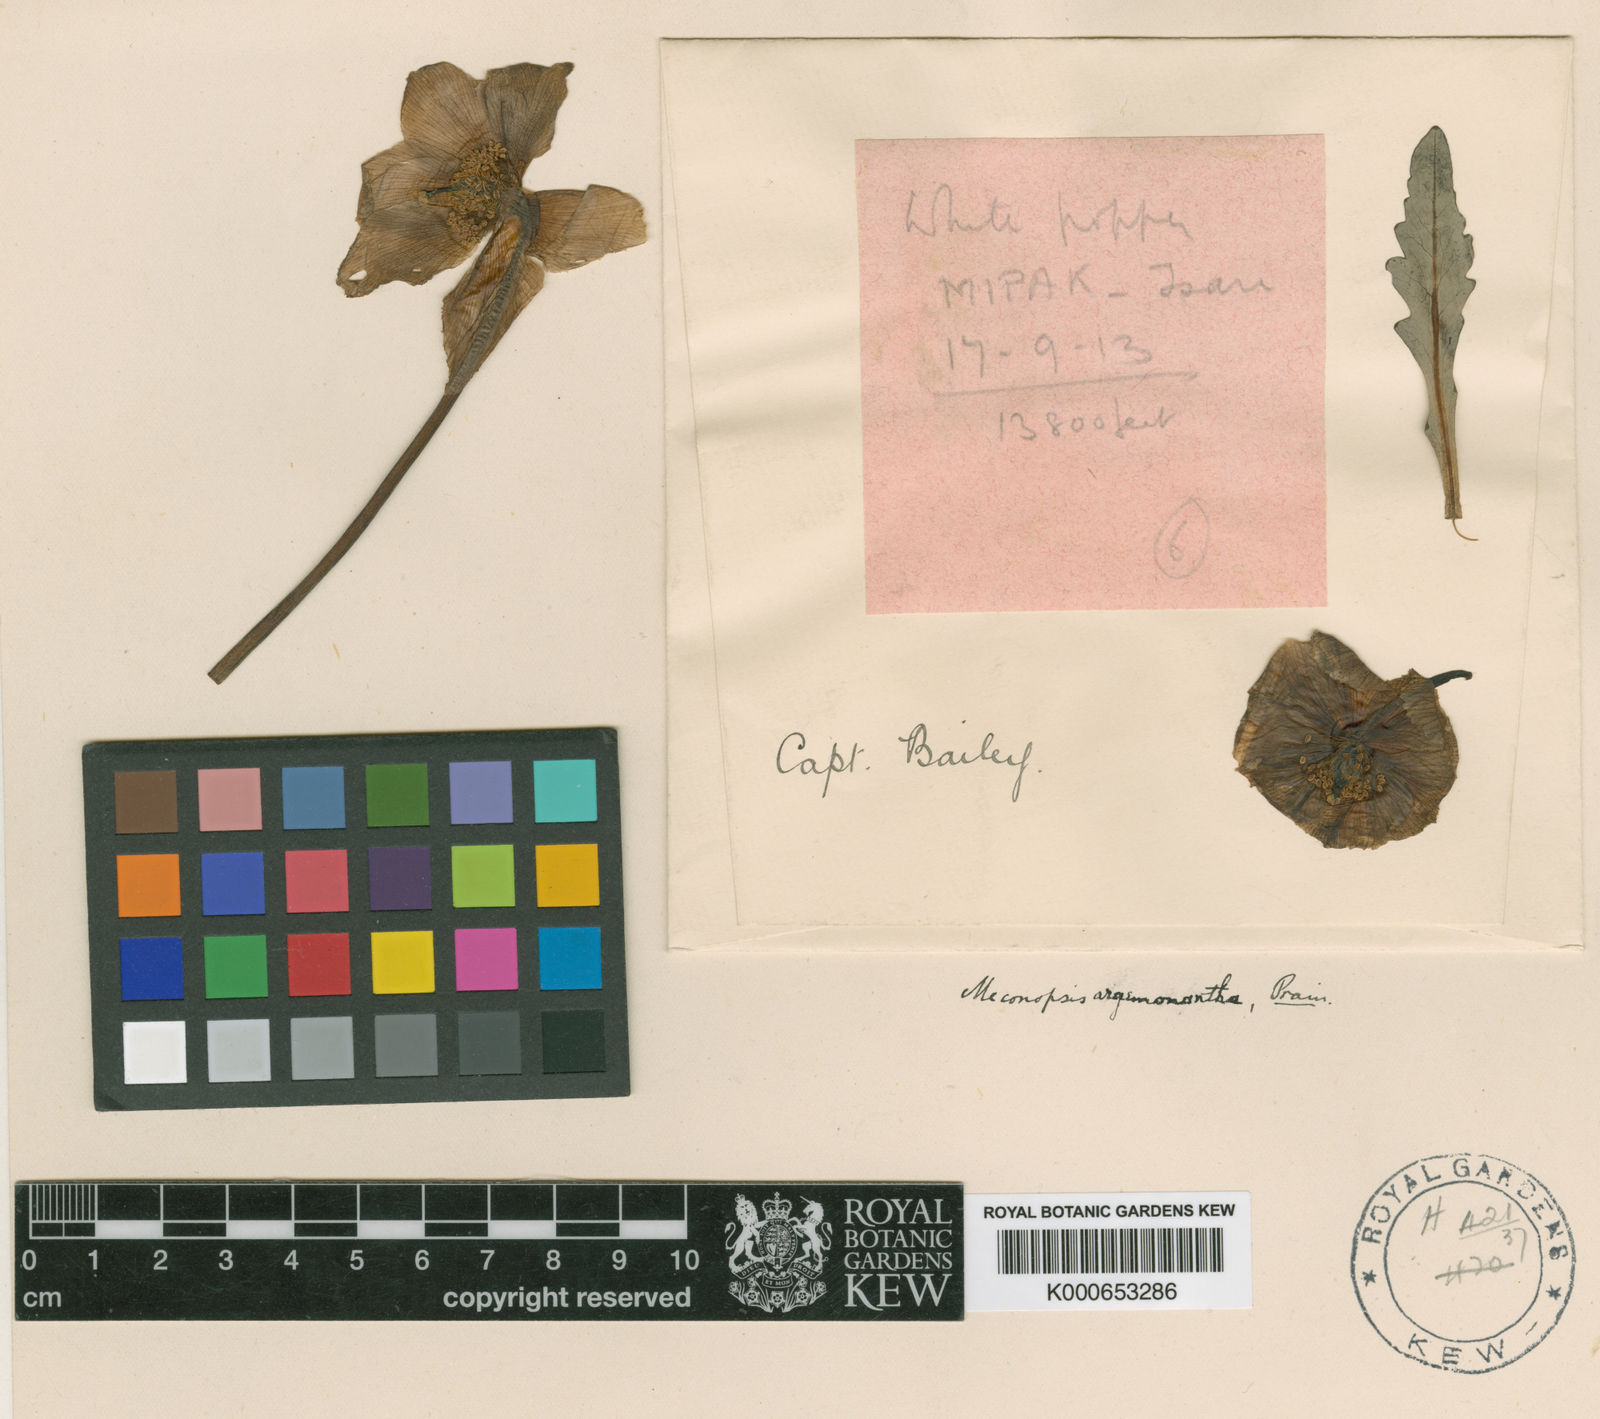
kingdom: Plantae
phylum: Tracheophyta
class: Magnoliopsida
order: Ranunculales
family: Papaveraceae
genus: Meconopsis
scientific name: Meconopsis argemonantha
